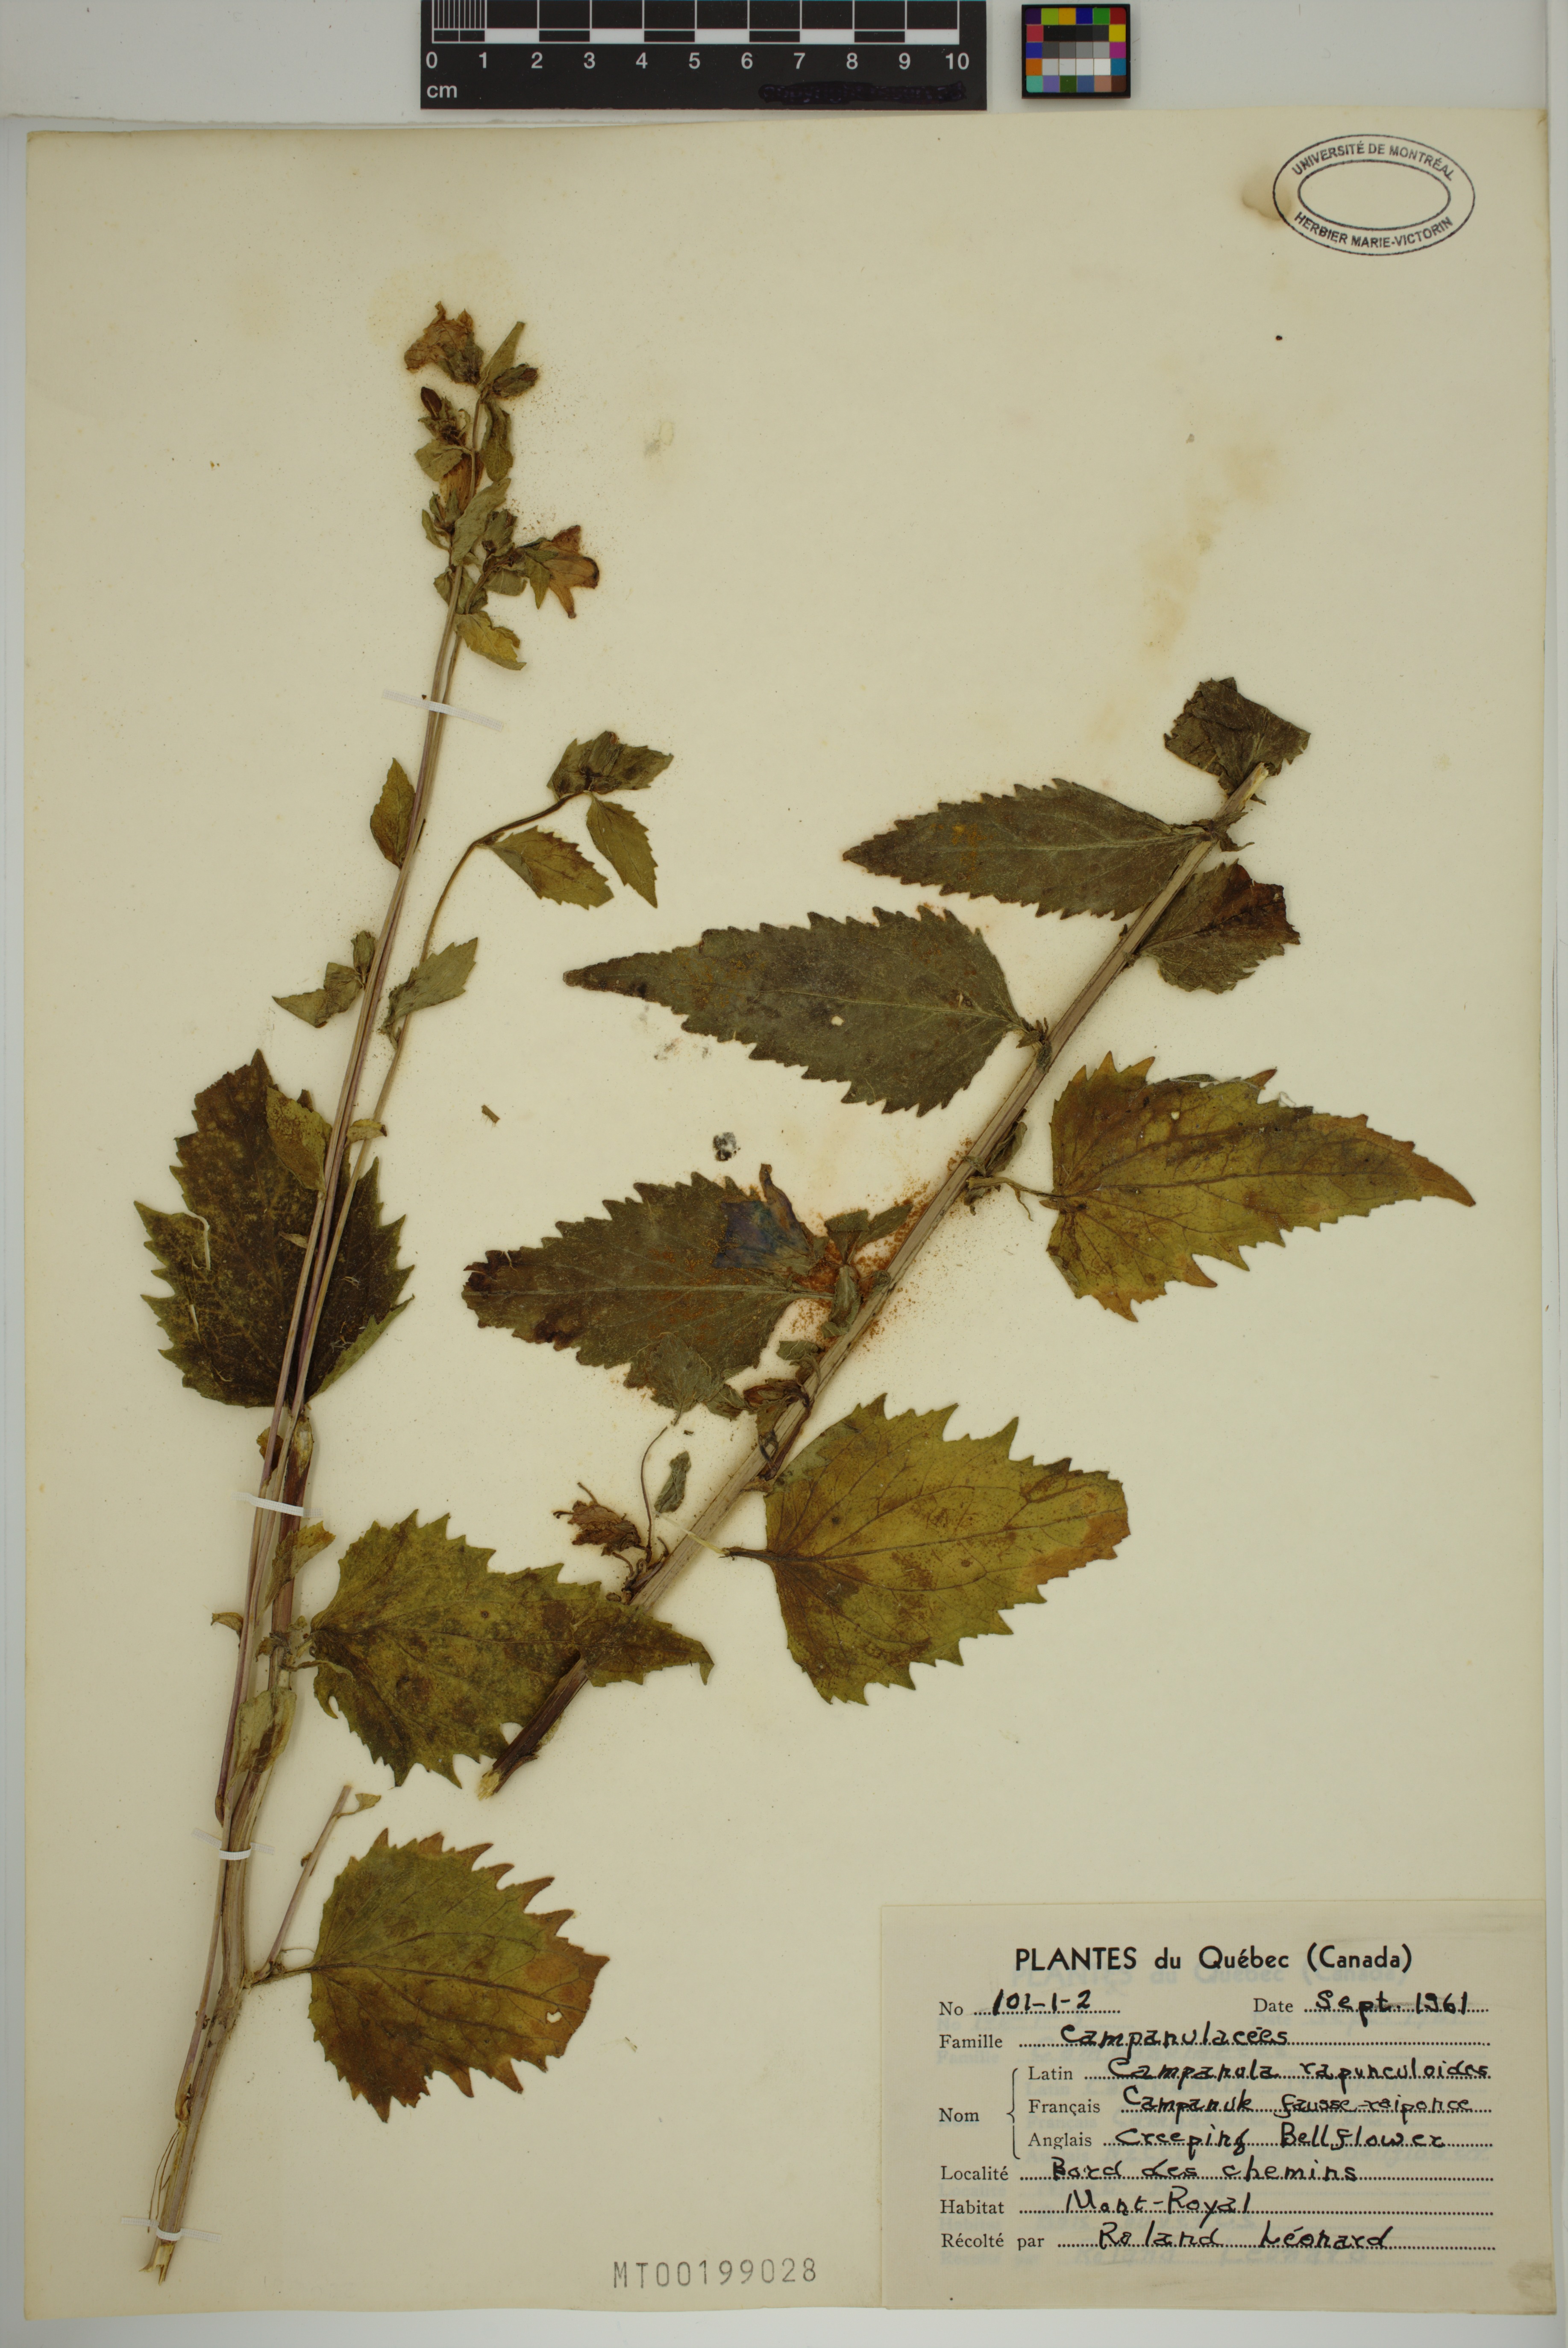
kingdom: Plantae
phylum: Tracheophyta
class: Magnoliopsida
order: Asterales
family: Campanulaceae
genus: Campanula
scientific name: Campanula rapunculoides
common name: Creeping bellflower
